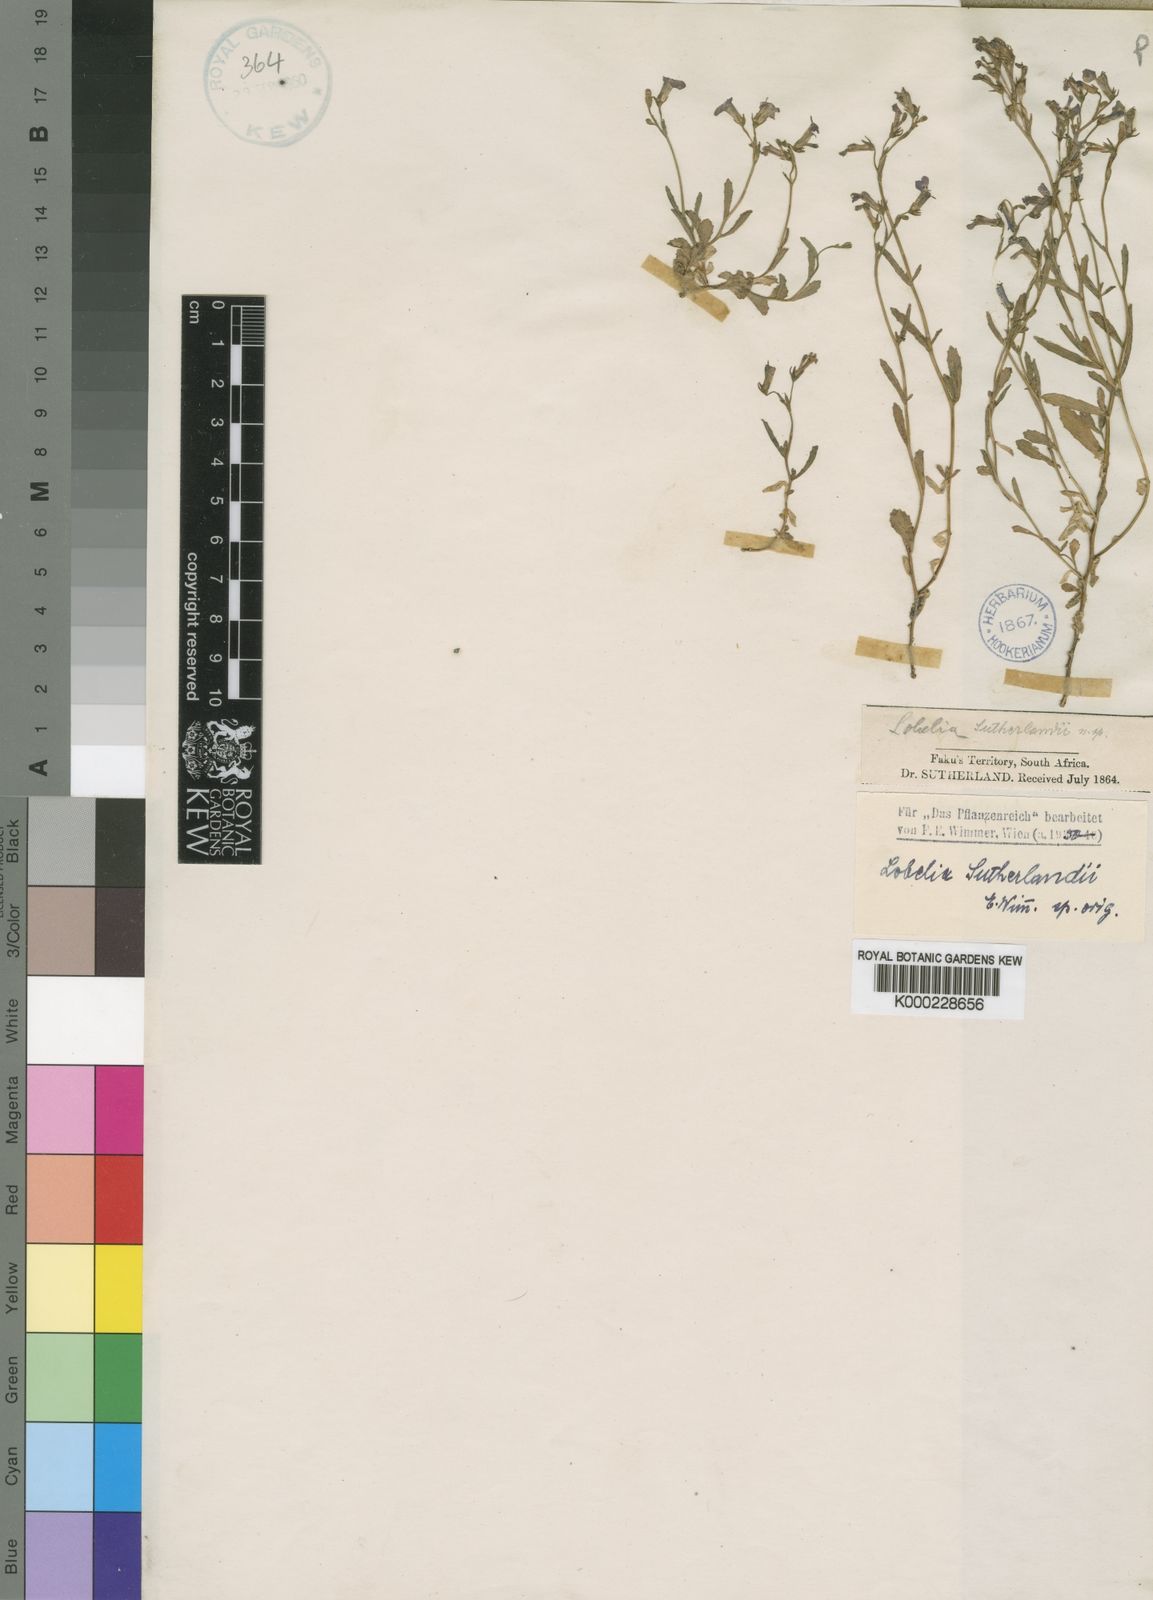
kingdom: Plantae
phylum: Tracheophyta
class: Magnoliopsida
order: Asterales
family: Campanulaceae
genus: Lobelia
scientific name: Lobelia sutherlandii
